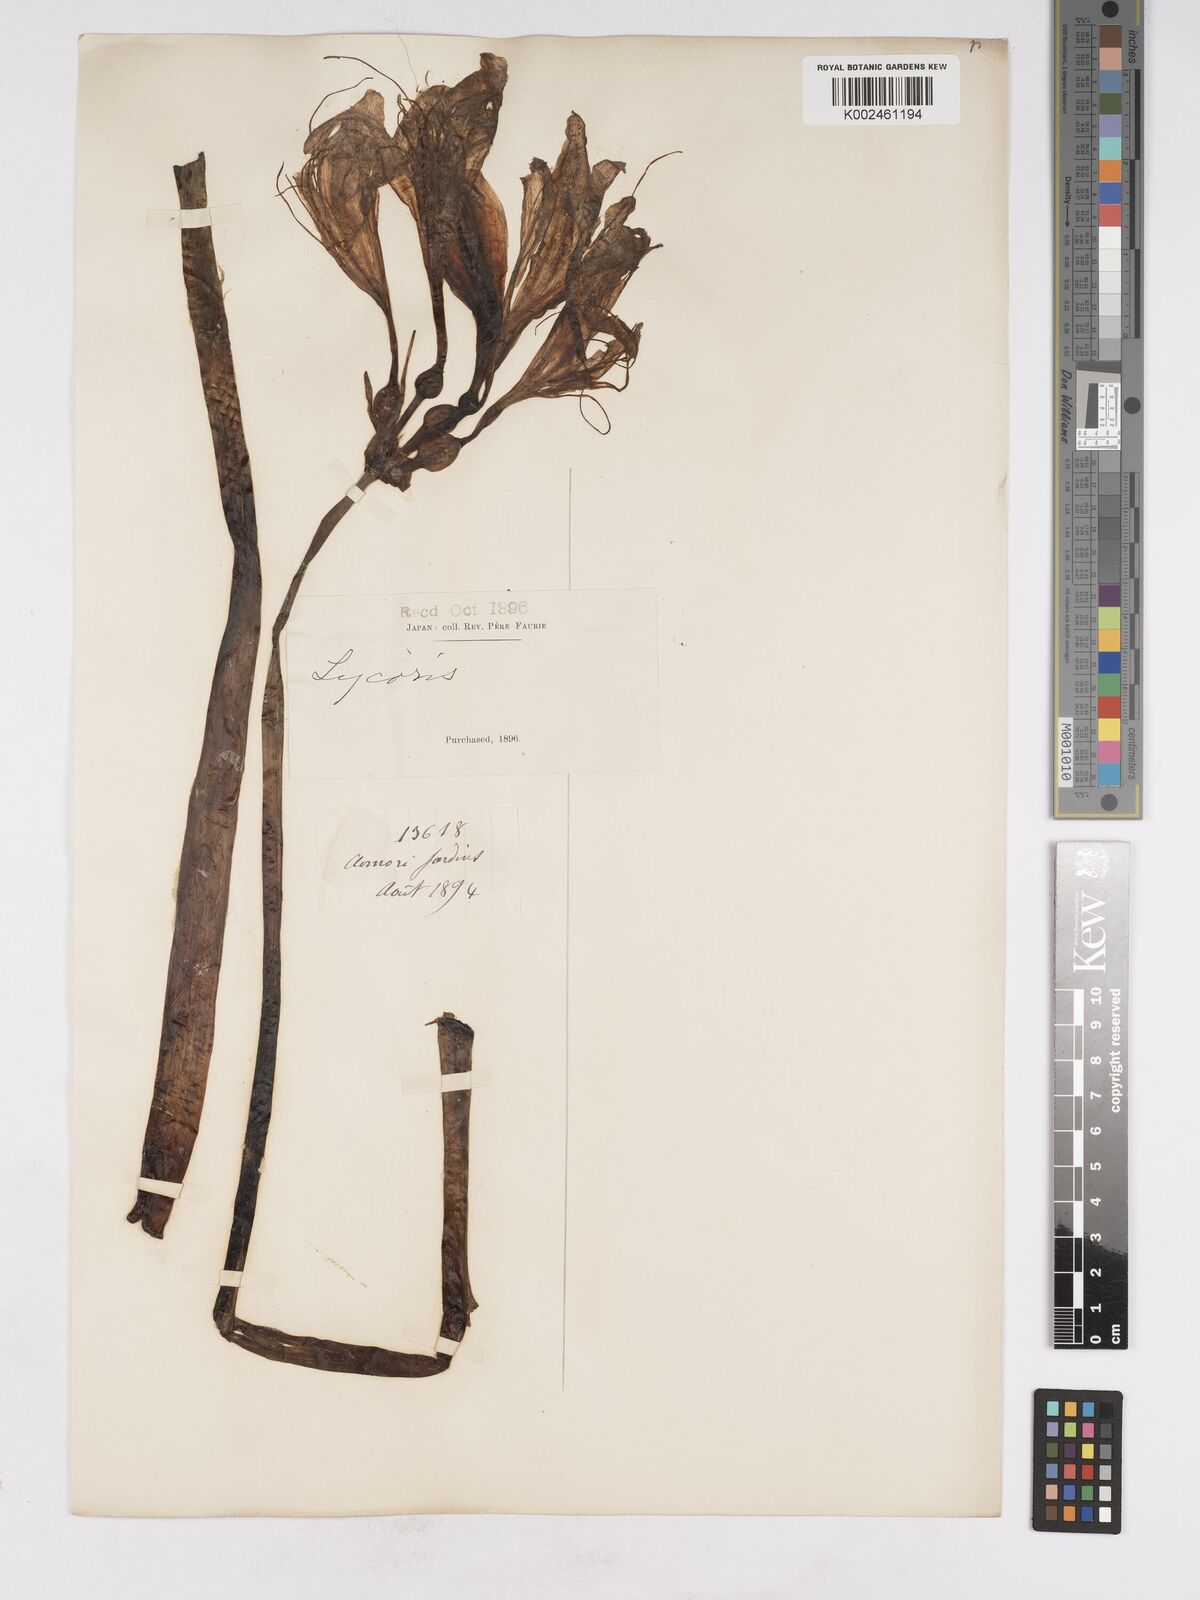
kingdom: Plantae
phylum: Tracheophyta
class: Liliopsida
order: Asparagales
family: Amaryllidaceae
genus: Lycoris
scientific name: Lycoris squamigera
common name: Magic-lily
